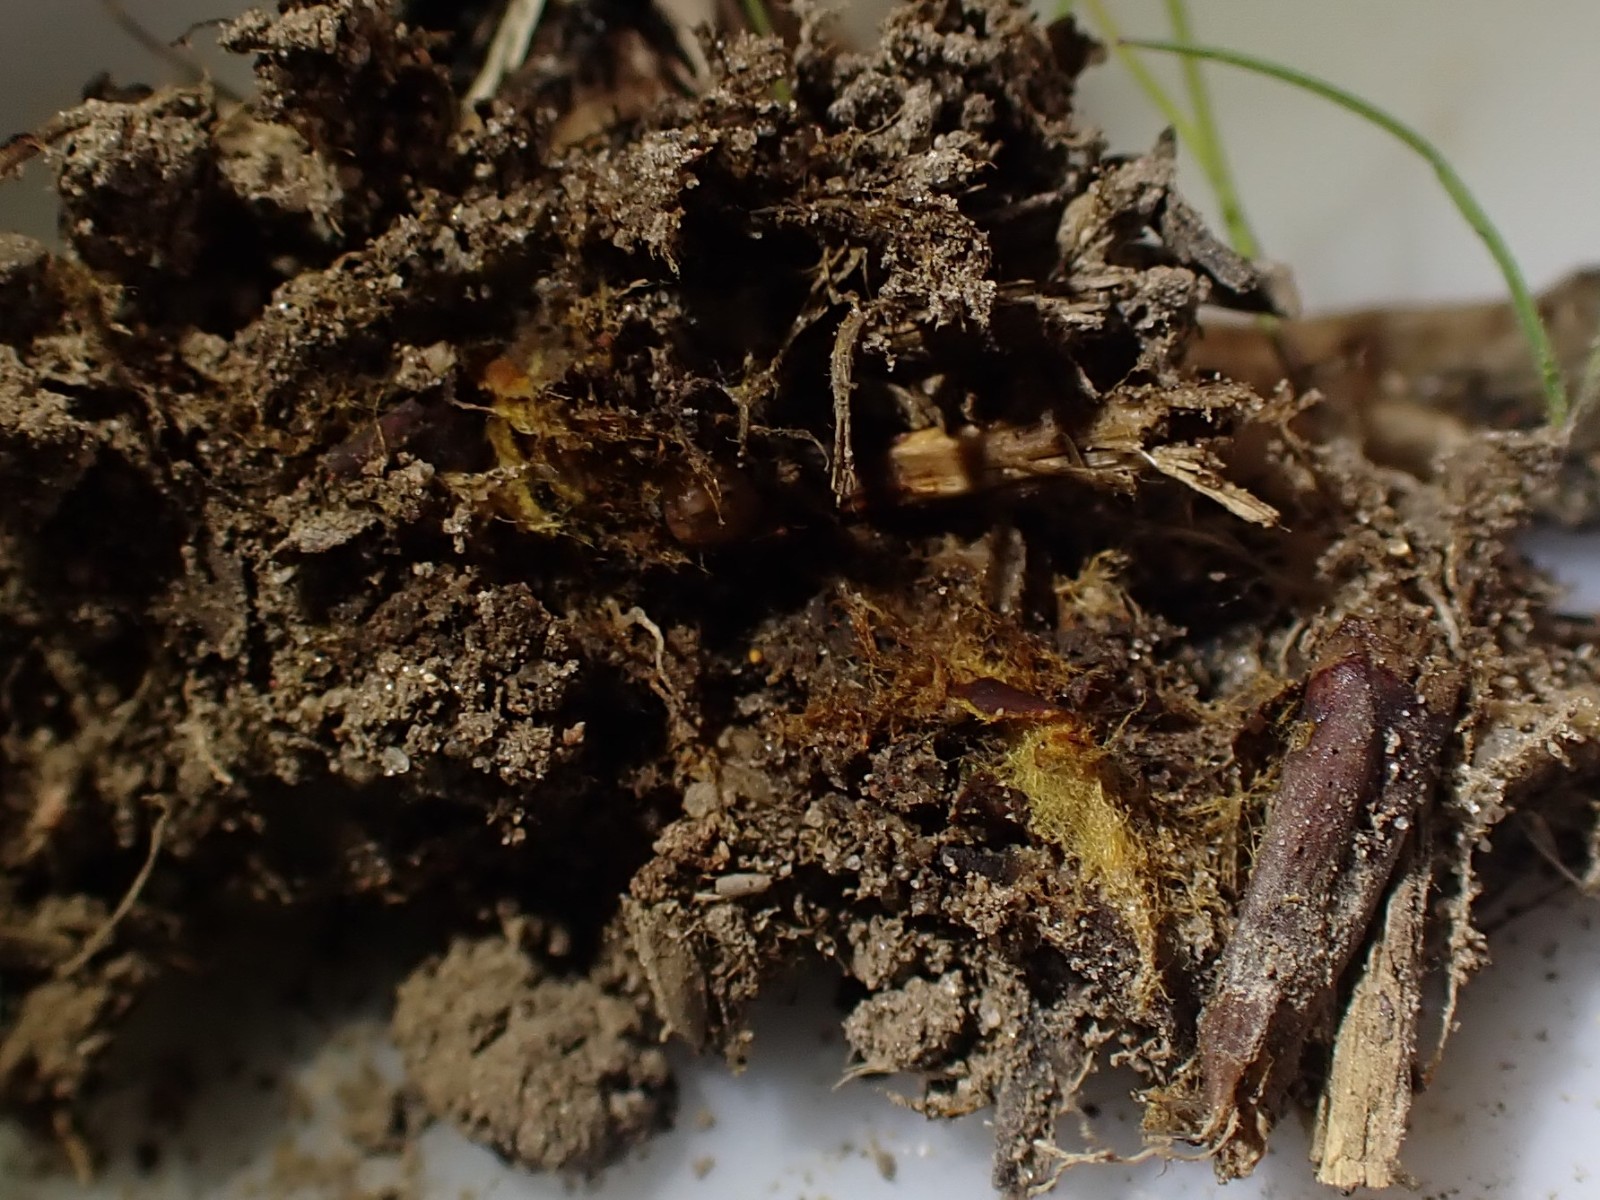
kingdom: Fungi
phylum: Basidiomycota
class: Agaricomycetes
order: Agaricales
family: Psathyrellaceae
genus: Coprinellus
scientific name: Coprinellus
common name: blækhat
